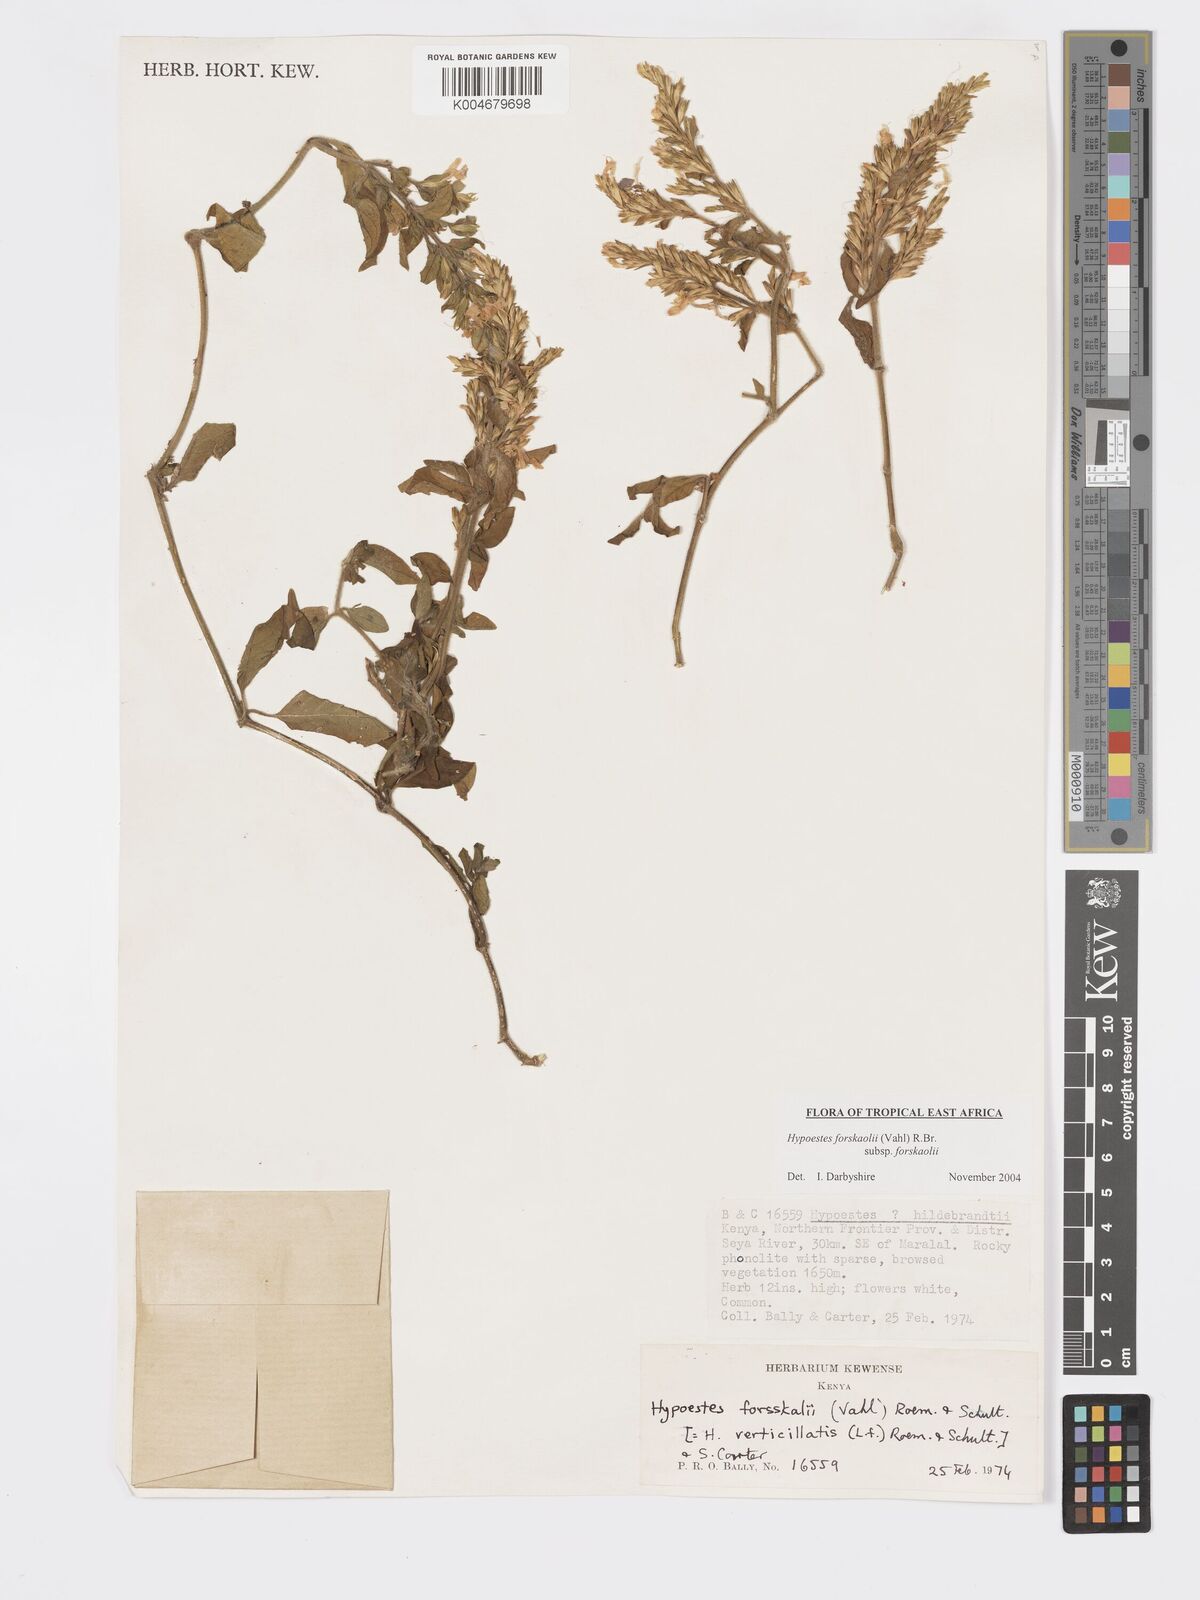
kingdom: Plantae
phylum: Tracheophyta
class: Magnoliopsida
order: Lamiales
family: Acanthaceae
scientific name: Acanthaceae
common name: Acanthaceae
